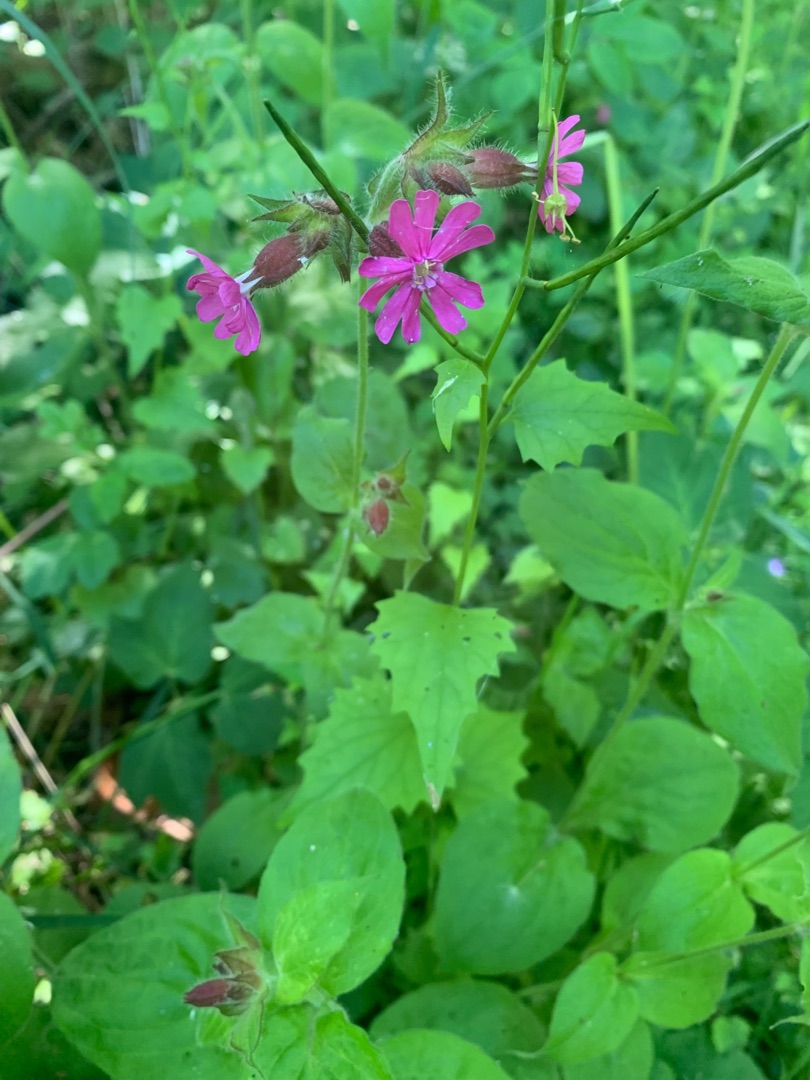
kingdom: Plantae
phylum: Tracheophyta
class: Magnoliopsida
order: Caryophyllales
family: Caryophyllaceae
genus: Silene
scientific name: Silene dioica
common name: Dagpragtstjerne
